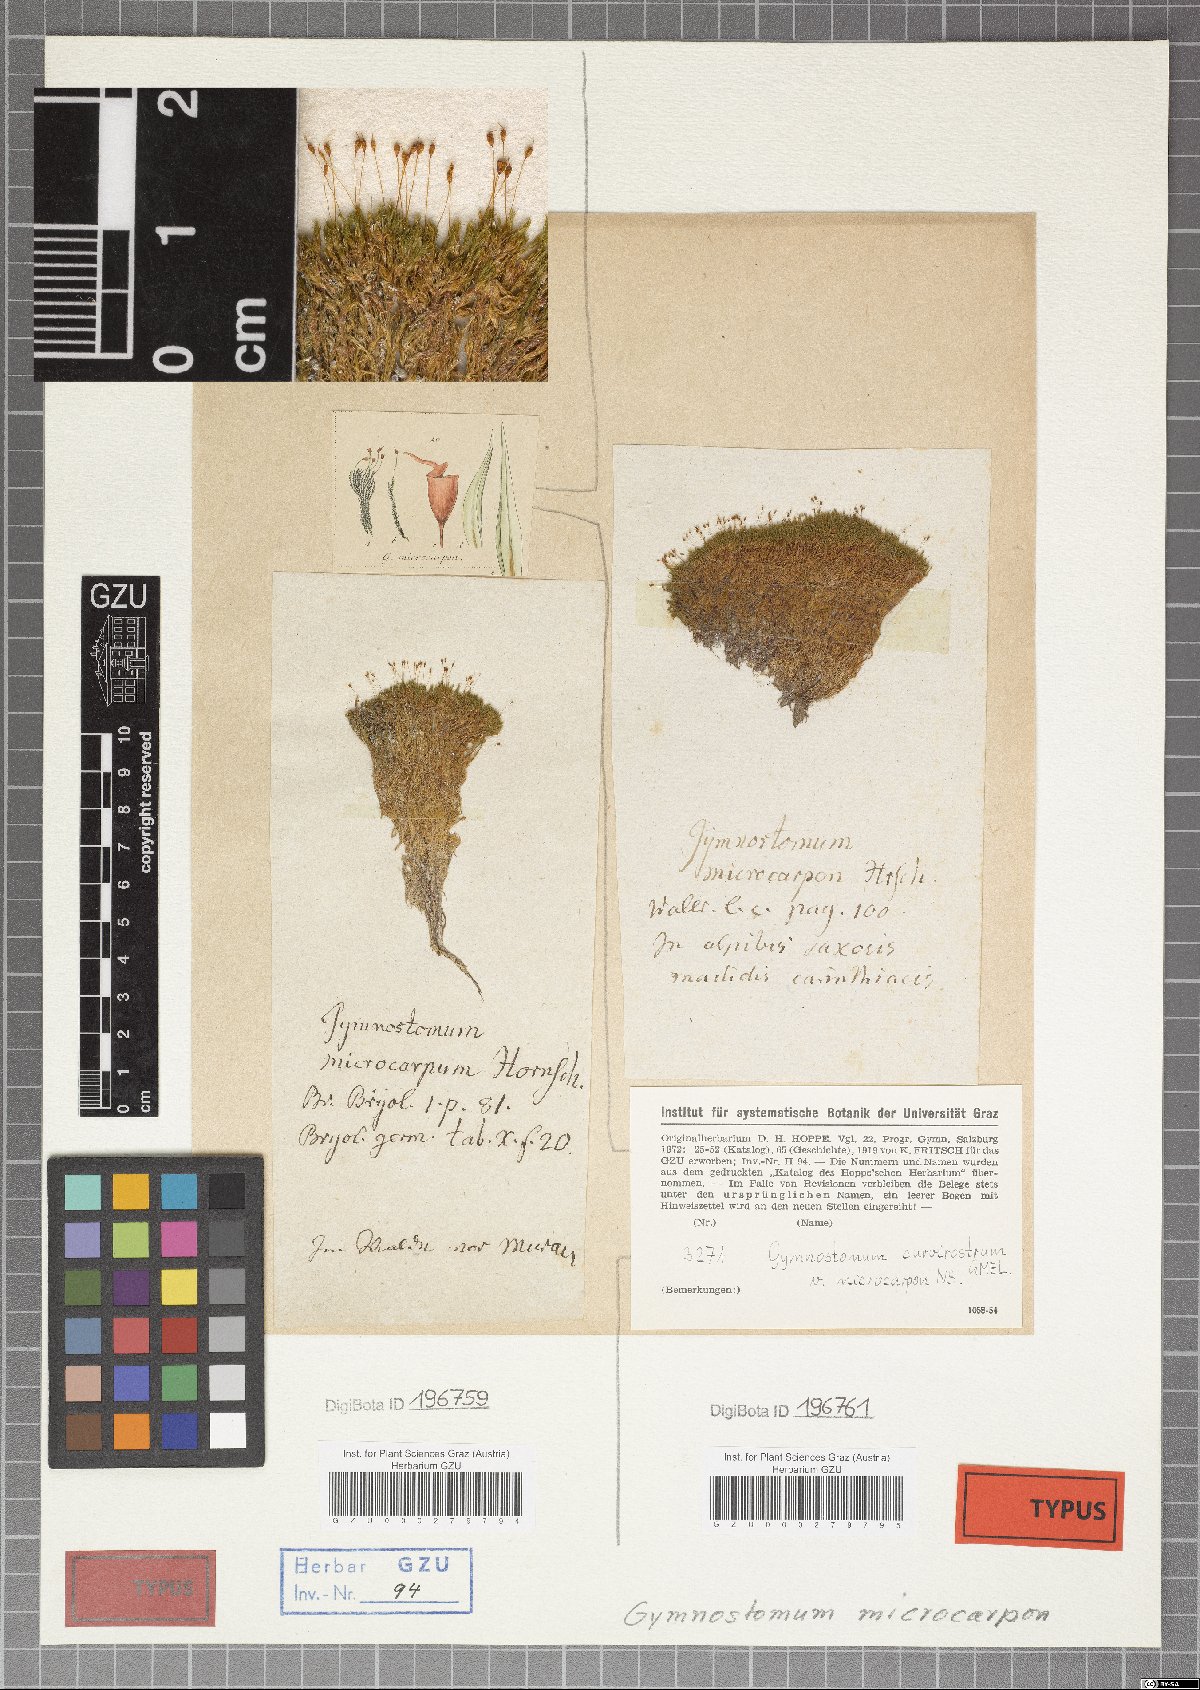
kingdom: Plantae
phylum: Bryophyta
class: Bryopsida
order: Pottiales
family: Pottiaceae
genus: Hymenostylium
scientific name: Hymenostylium recurvirostrum
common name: Hook-beak tufa-moss
